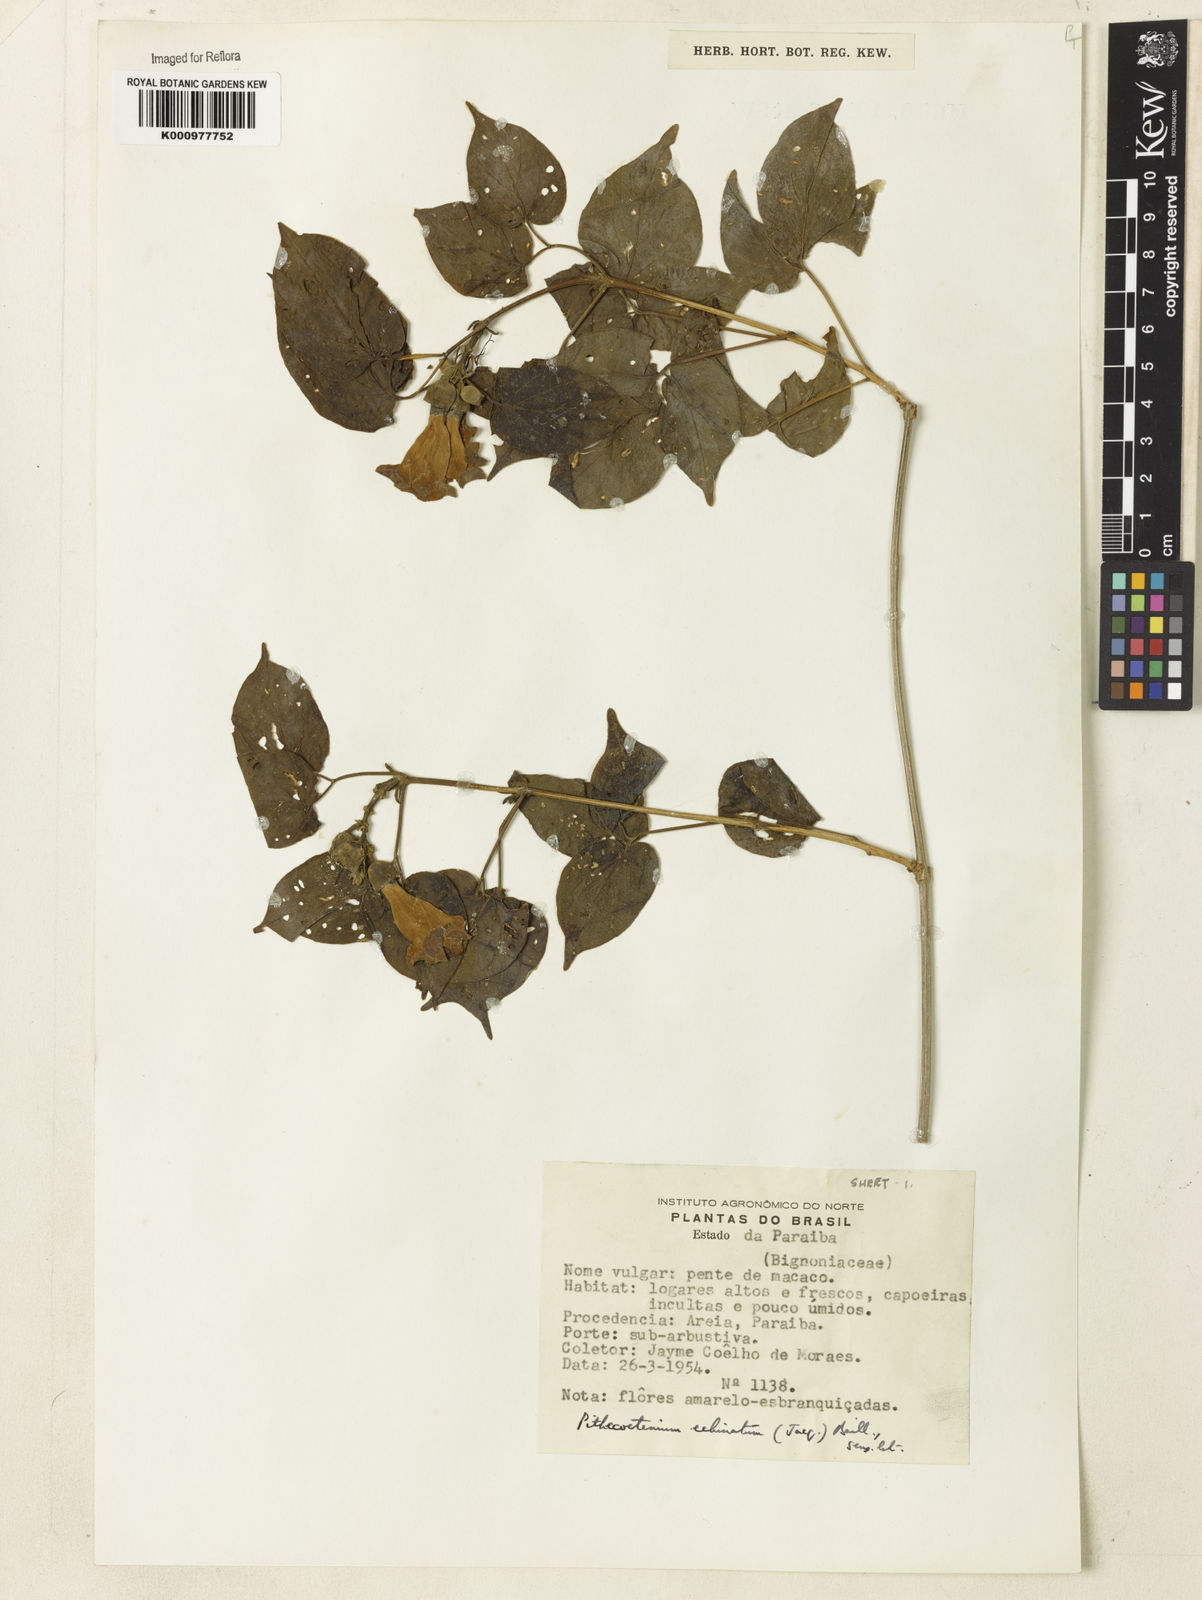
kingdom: Plantae
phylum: Tracheophyta
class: Magnoliopsida
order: Lamiales
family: Bignoniaceae
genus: Amphilophium
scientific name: Amphilophium crucigerum
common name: Monkey comb
